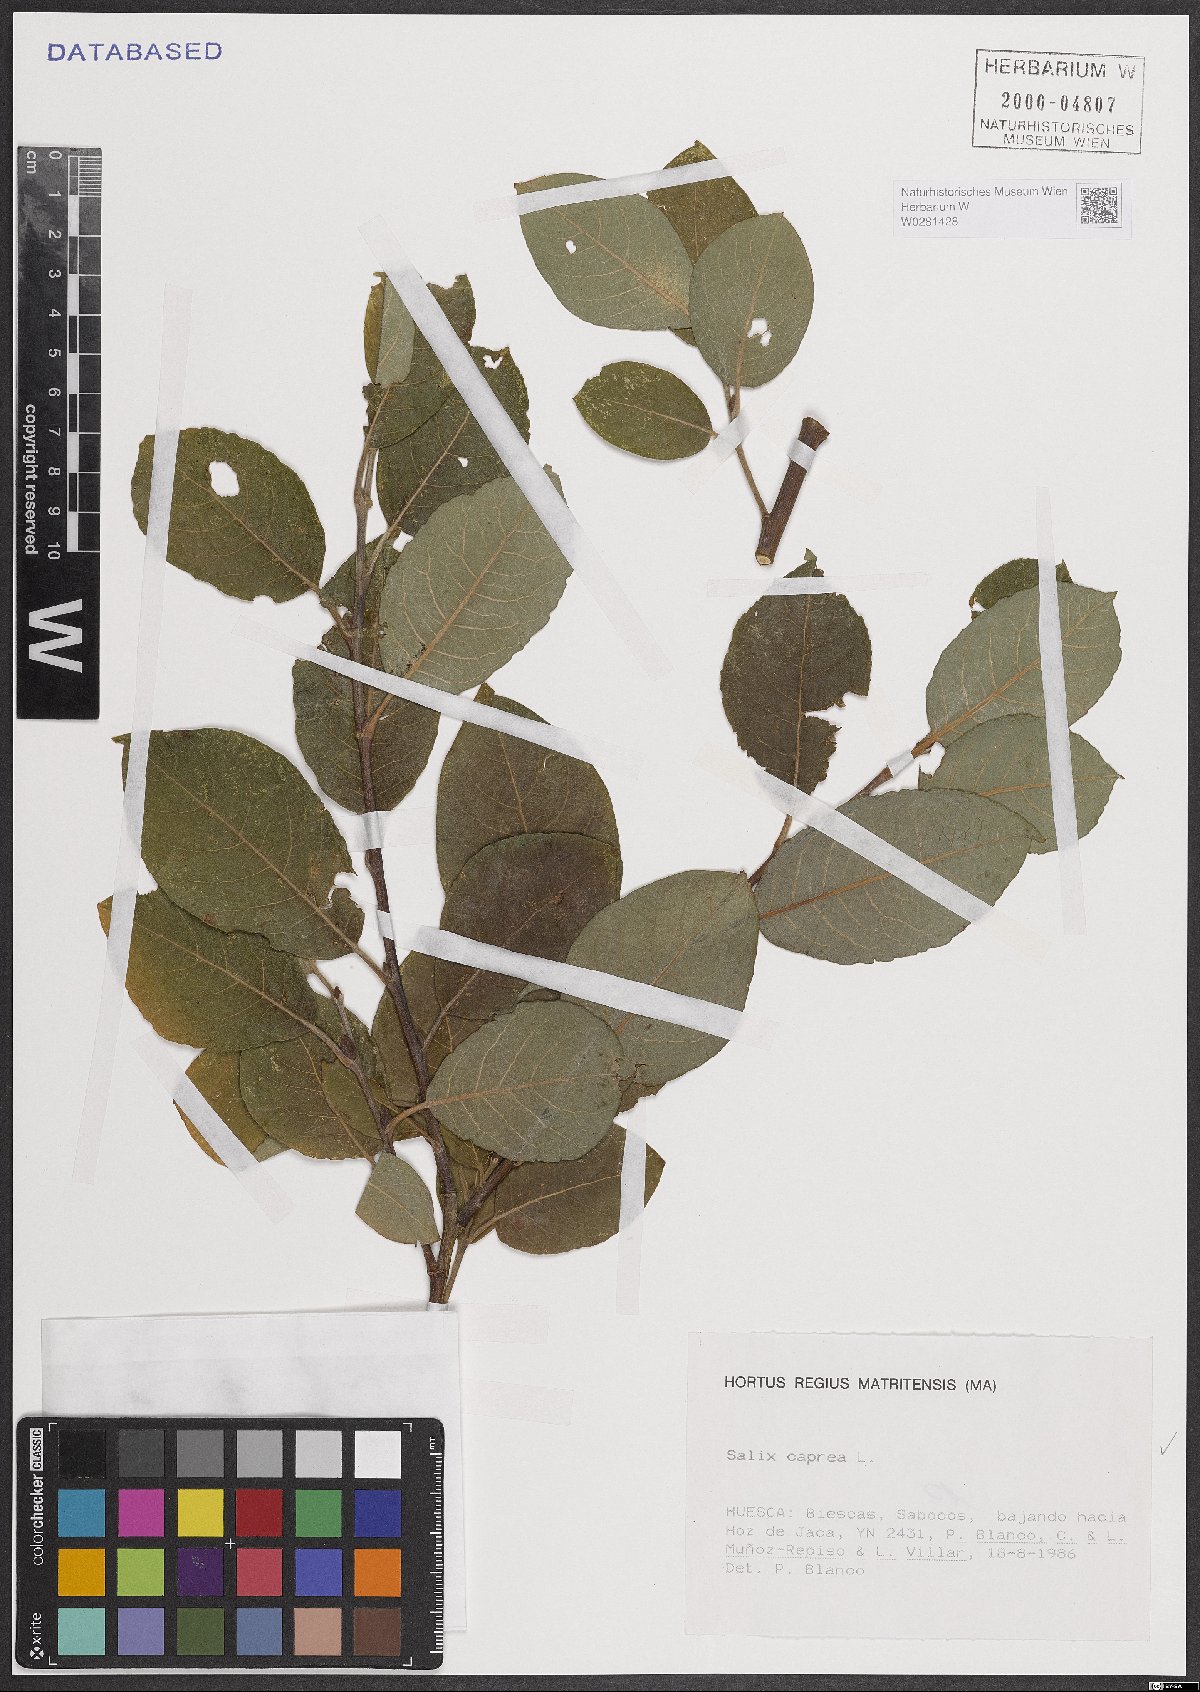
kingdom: Plantae
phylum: Tracheophyta
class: Magnoliopsida
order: Malpighiales
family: Salicaceae
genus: Salix
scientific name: Salix caprea
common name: Goat willow
